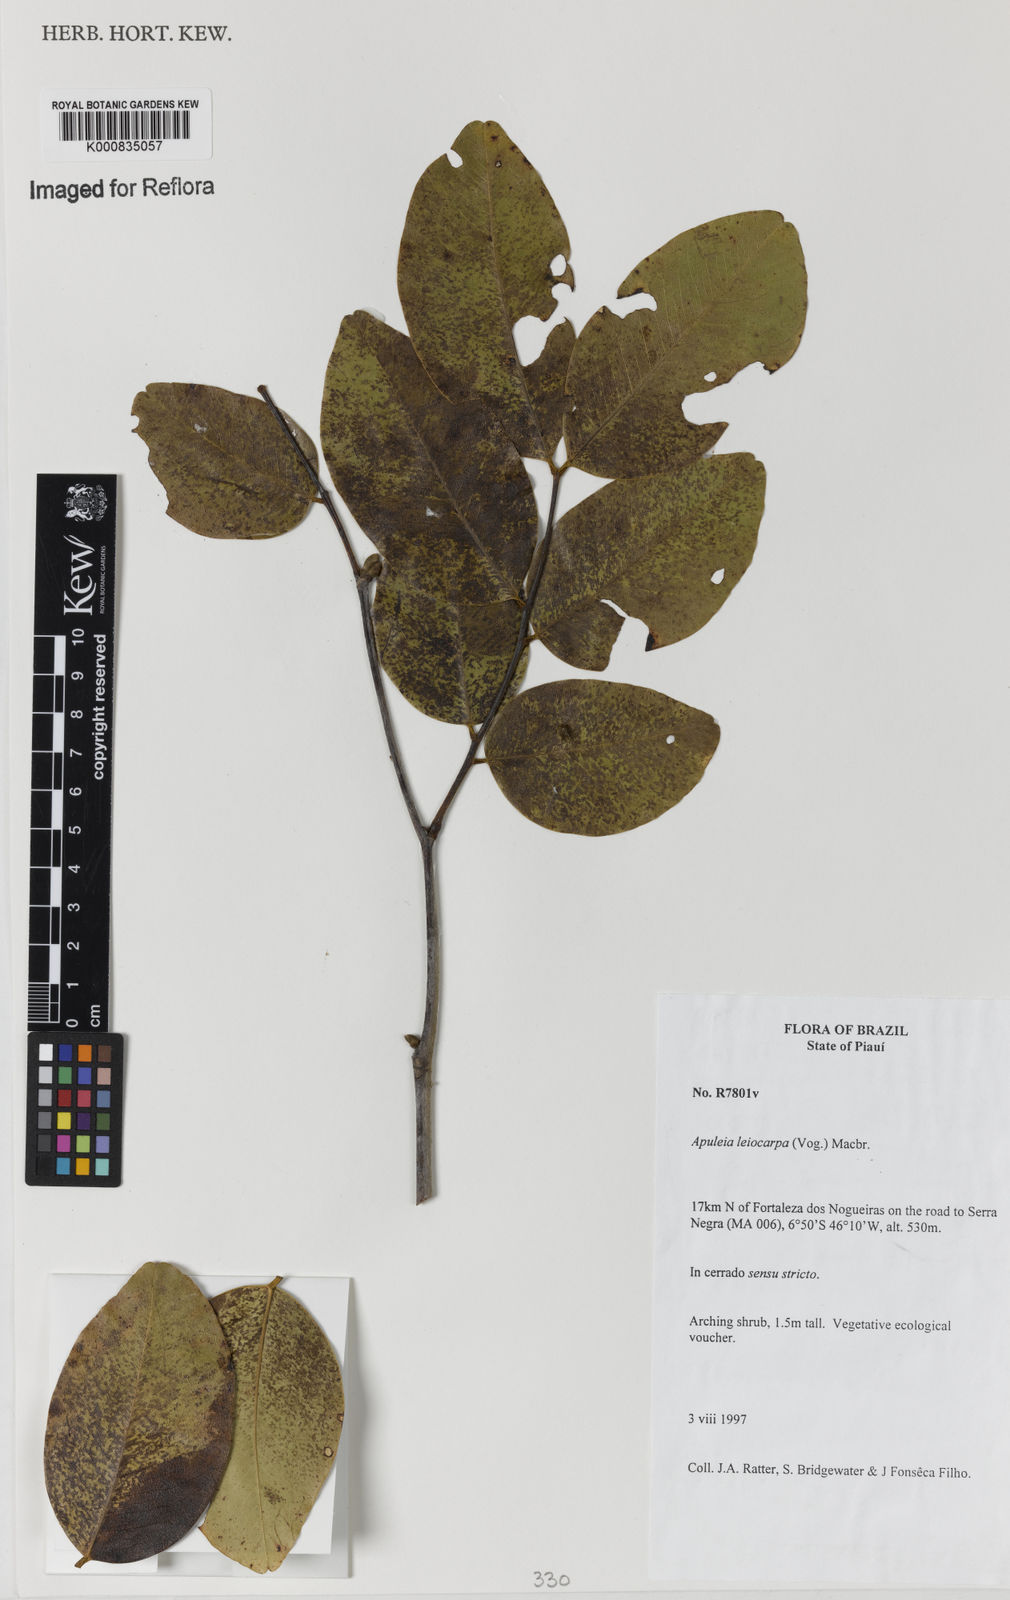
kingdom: Plantae
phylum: Tracheophyta
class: Magnoliopsida
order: Fabales
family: Fabaceae
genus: Apuleia
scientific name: Apuleia leiocarpa
